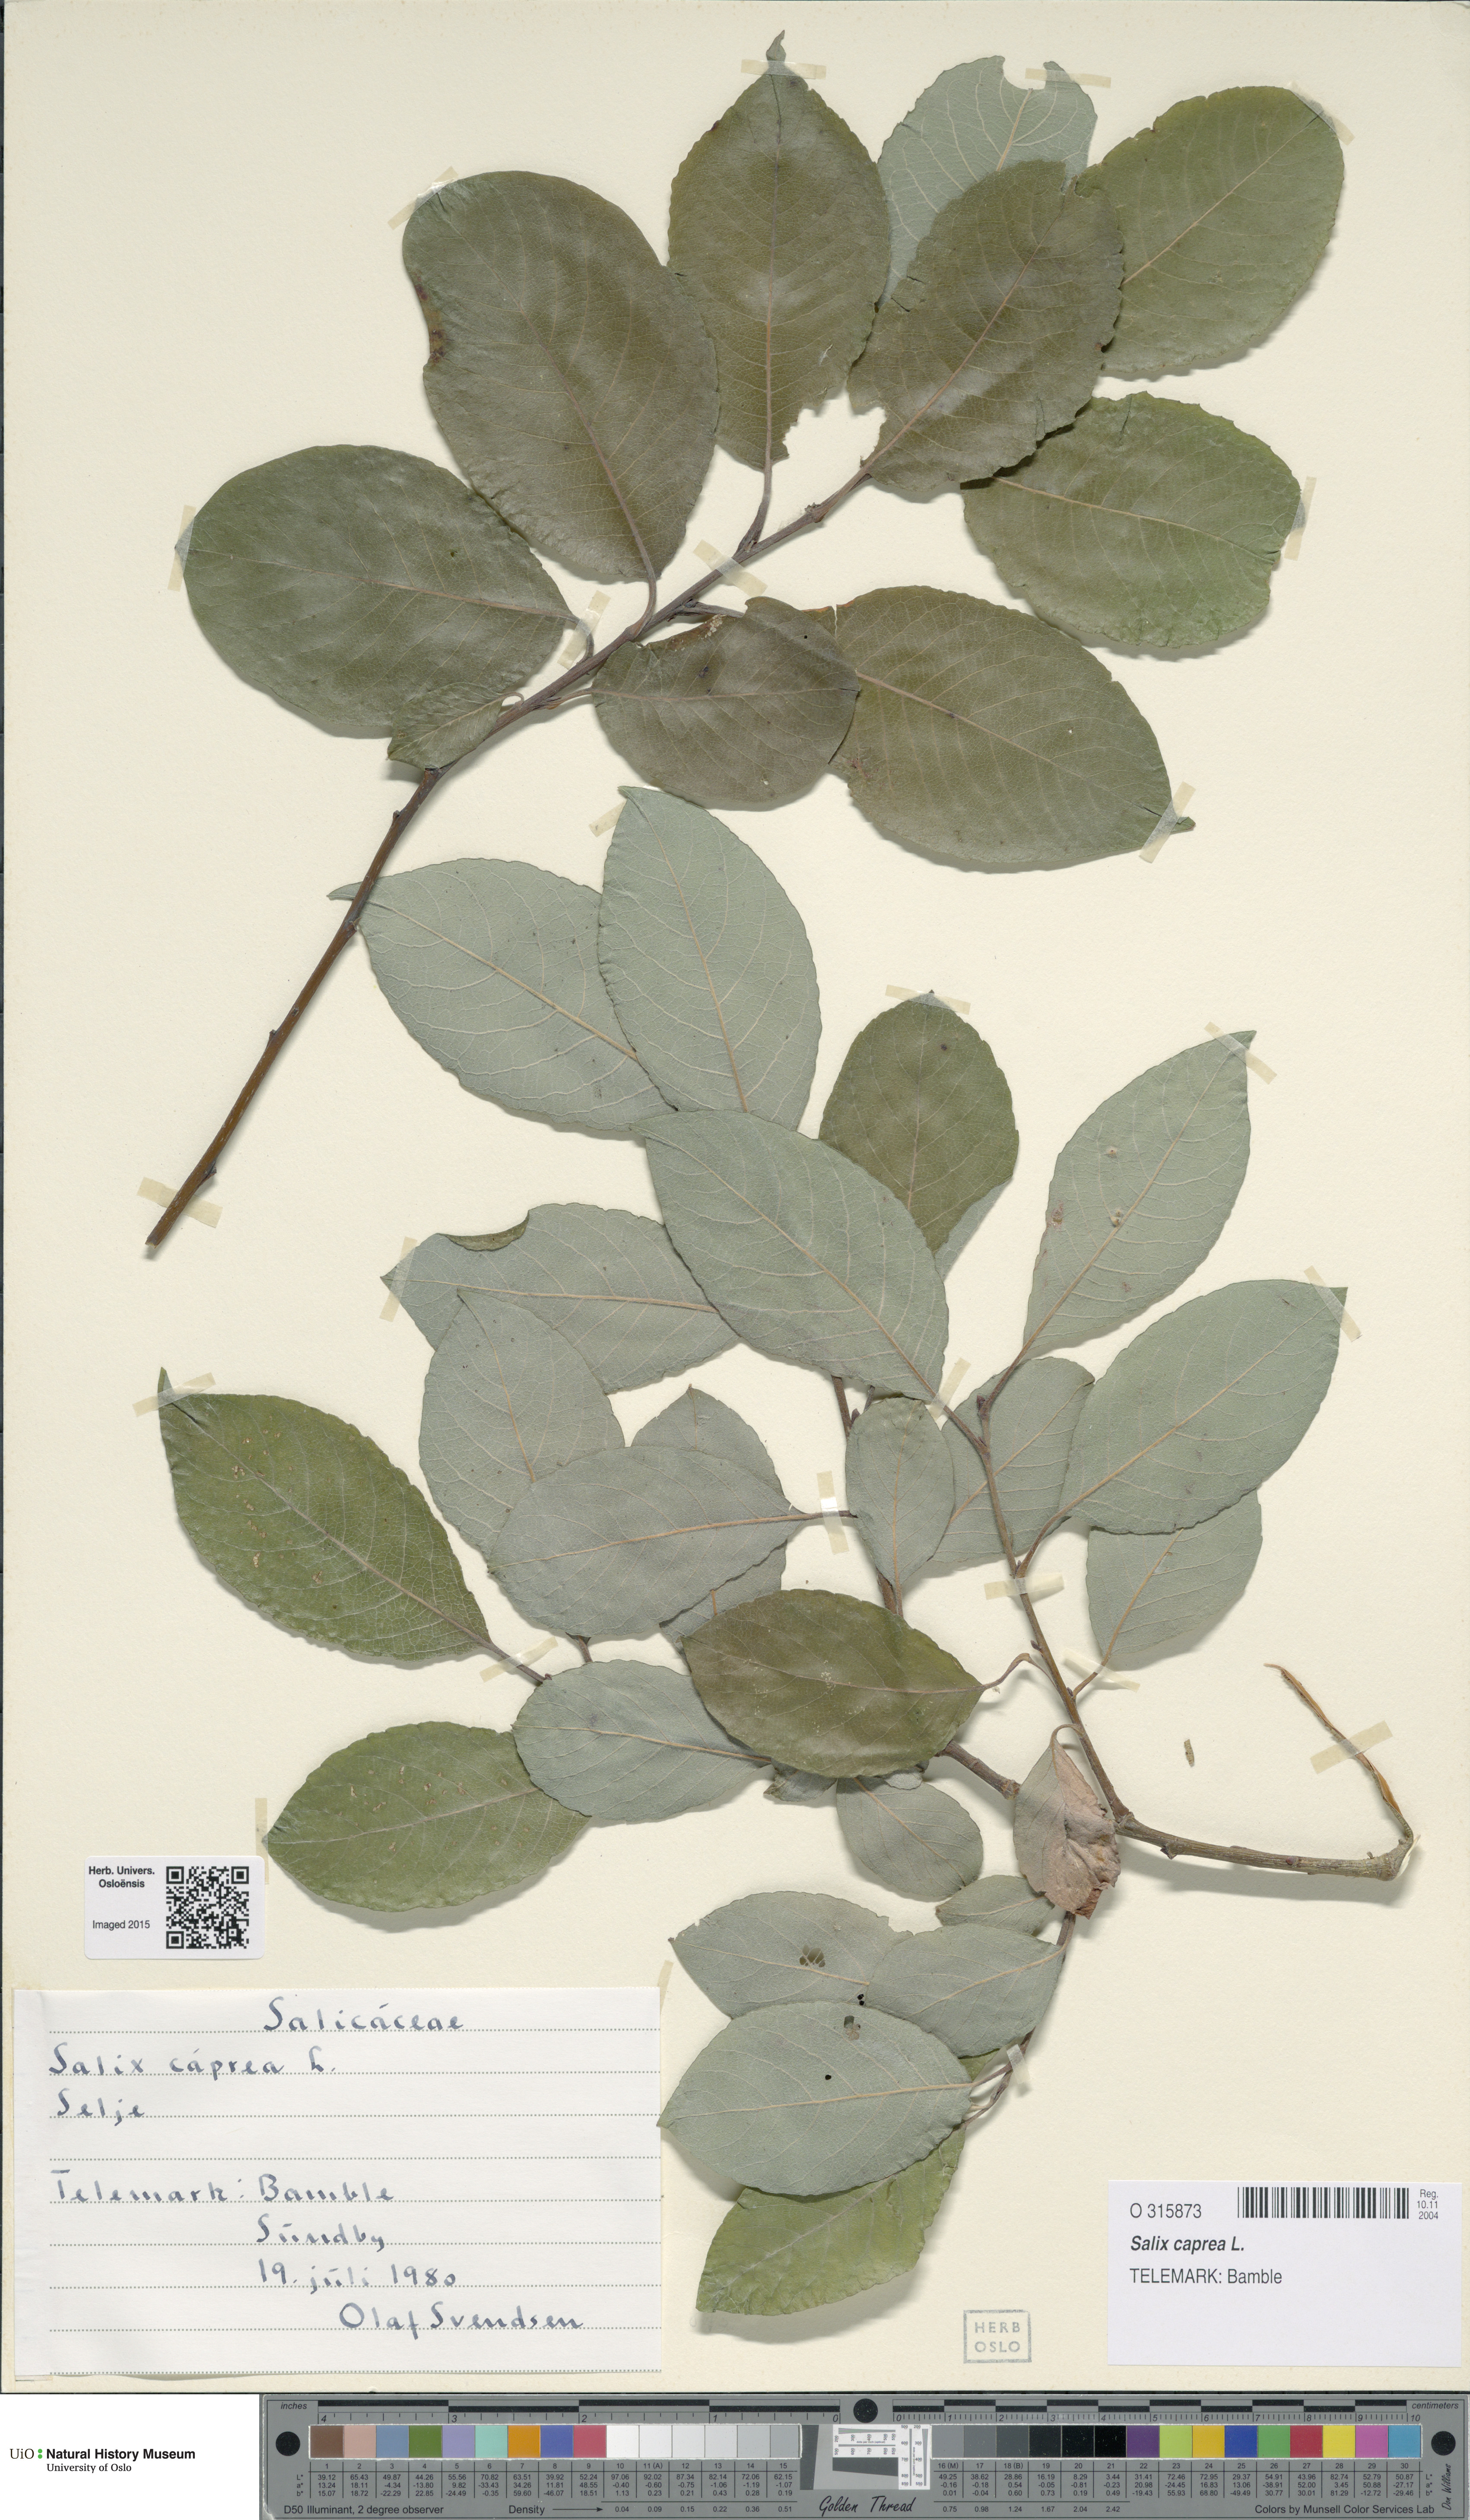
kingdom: Plantae
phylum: Tracheophyta
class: Magnoliopsida
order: Malpighiales
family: Salicaceae
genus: Salix
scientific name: Salix caprea
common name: Goat willow
